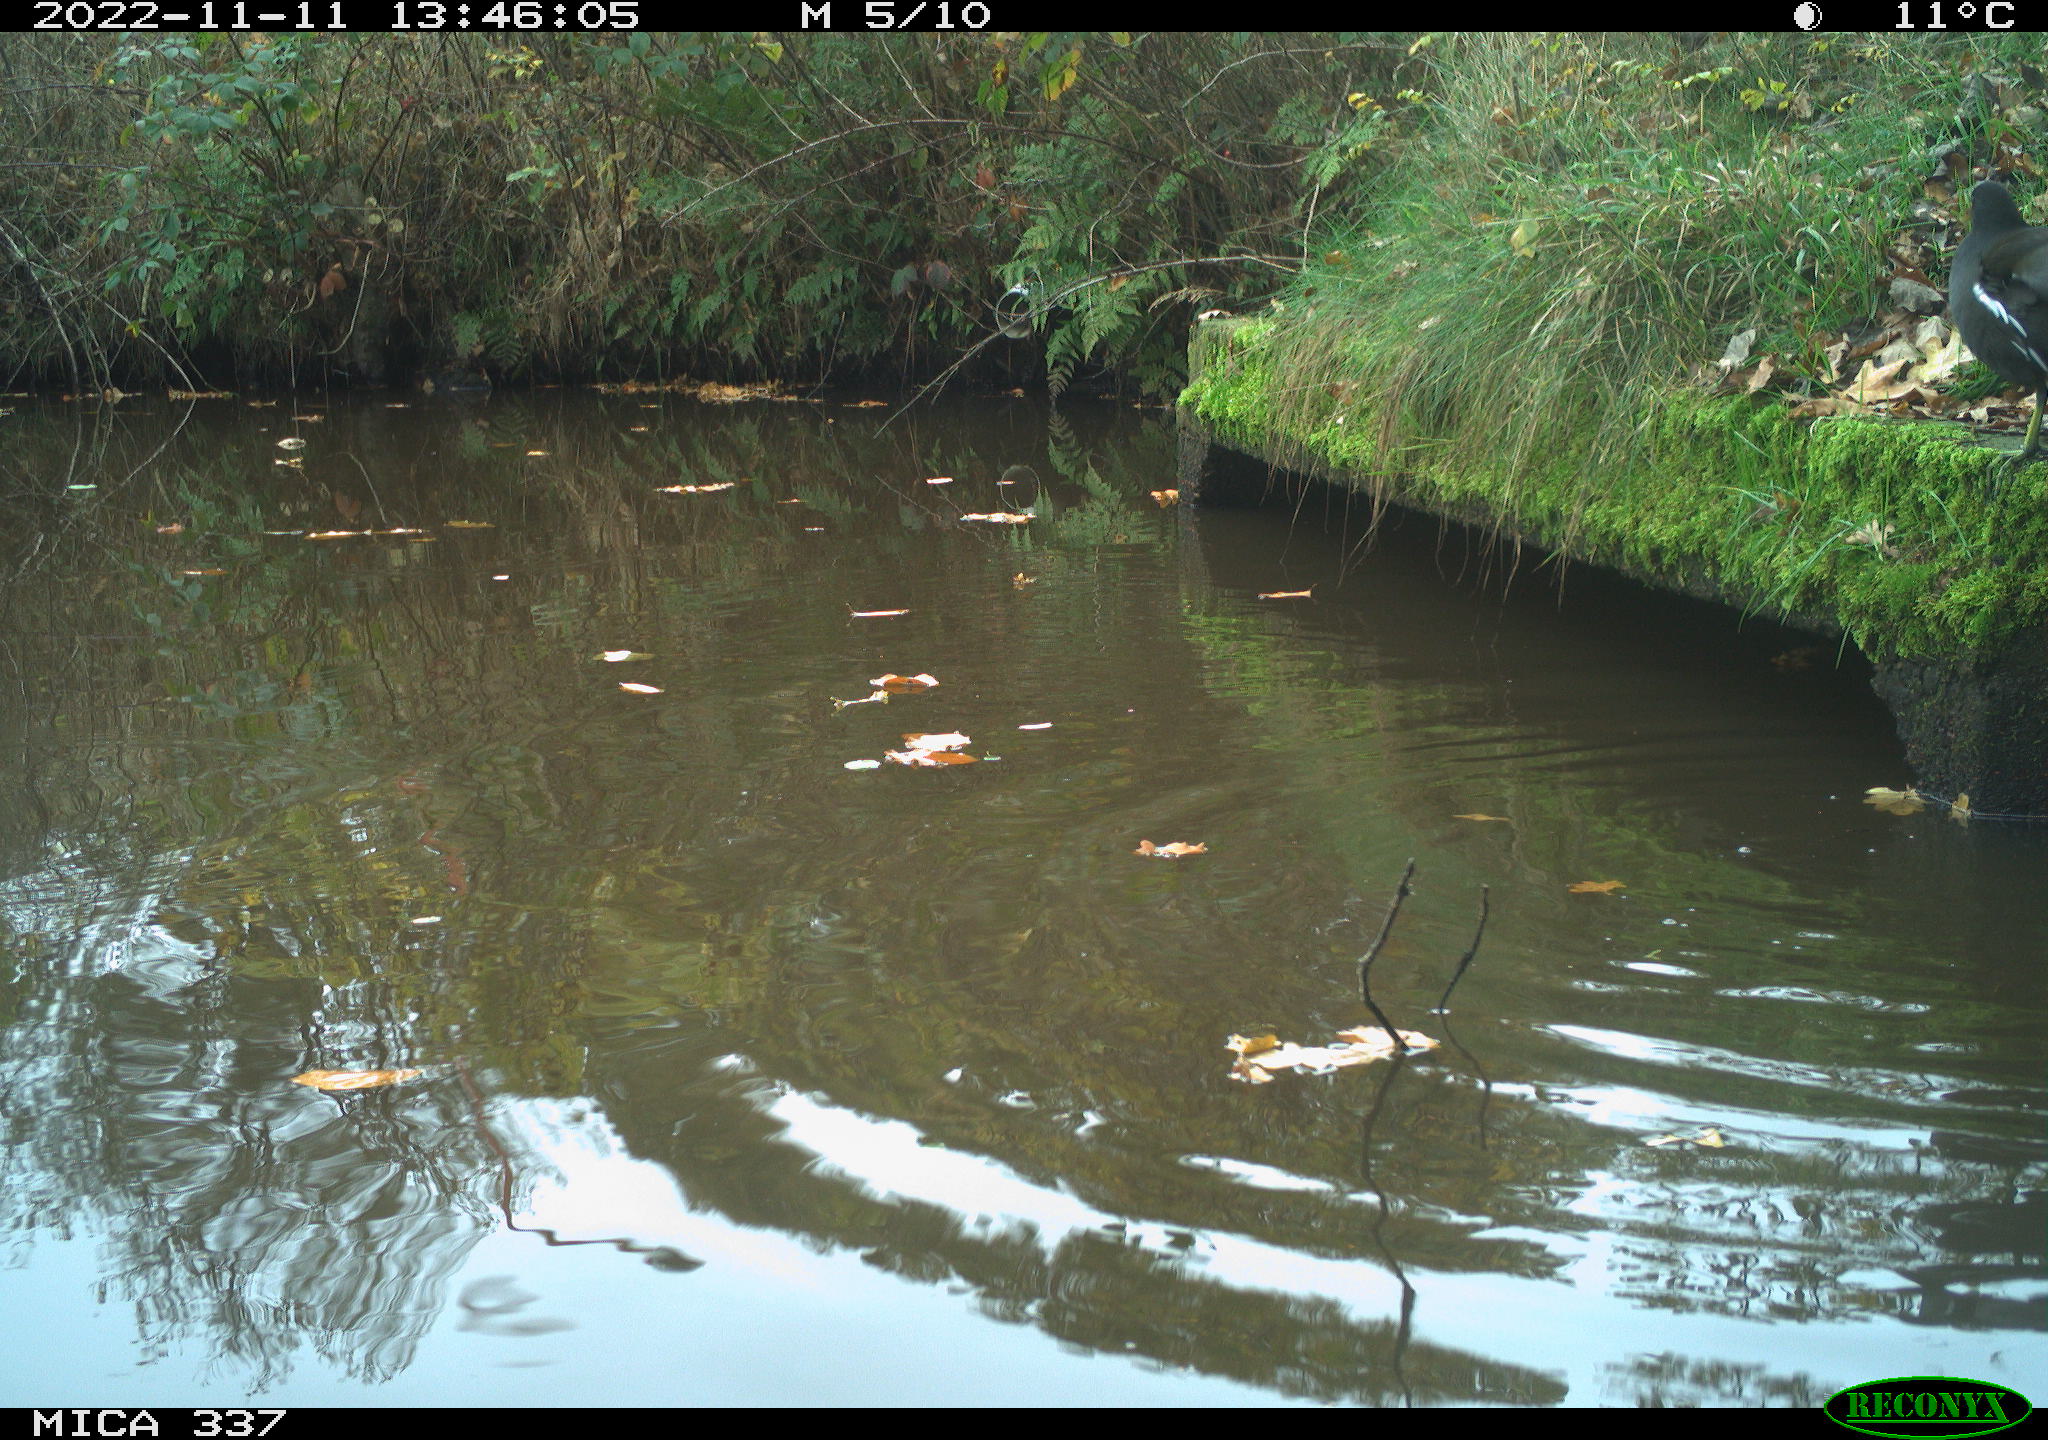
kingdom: Animalia
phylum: Chordata
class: Aves
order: Gruiformes
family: Rallidae
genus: Gallinula
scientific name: Gallinula chloropus
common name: Common moorhen
